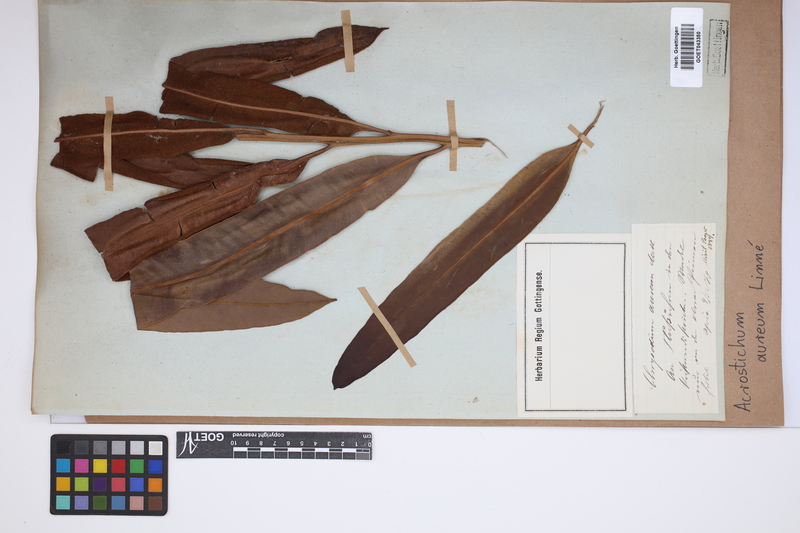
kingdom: Plantae
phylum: Tracheophyta
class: Polypodiopsida
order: Polypodiales
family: Pteridaceae
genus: Acrostichum
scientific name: Acrostichum aureum
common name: Leather fern
